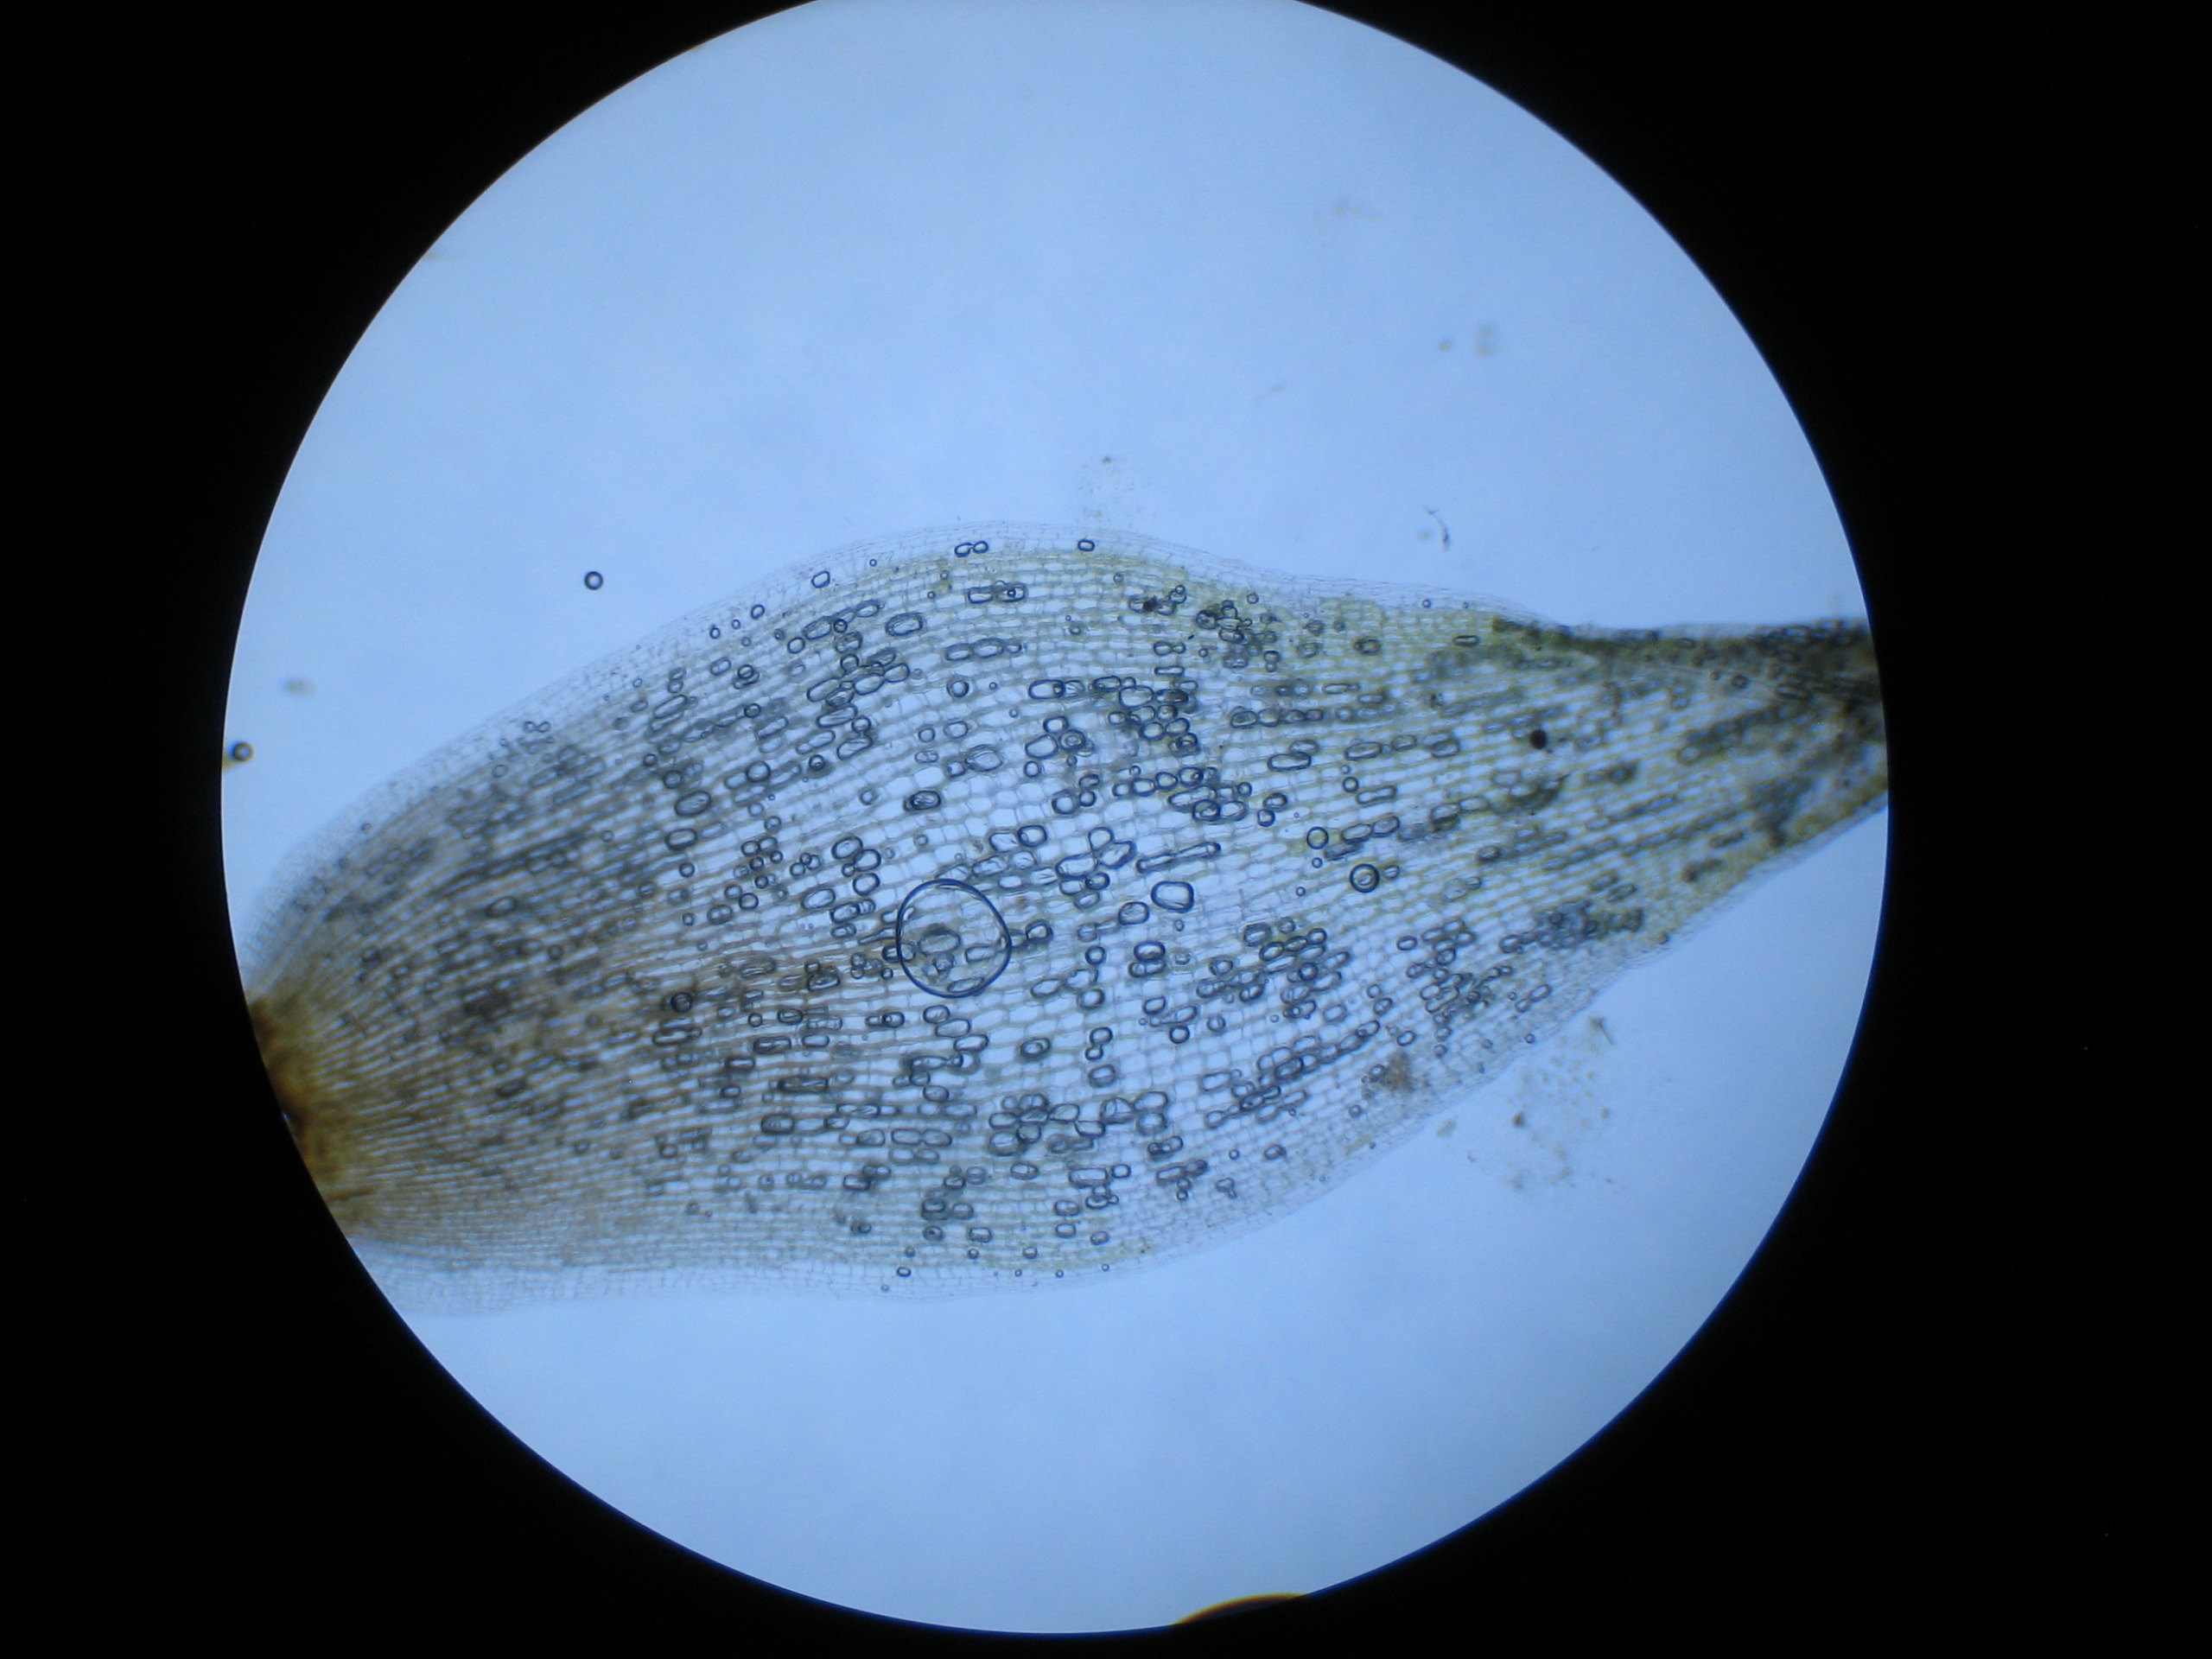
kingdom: Plantae
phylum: Bryophyta
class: Bryopsida
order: Dicranales
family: Leucobryaceae
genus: Leucobryum
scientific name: Leucobryum glaucum
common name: Almindelig hvidmos
